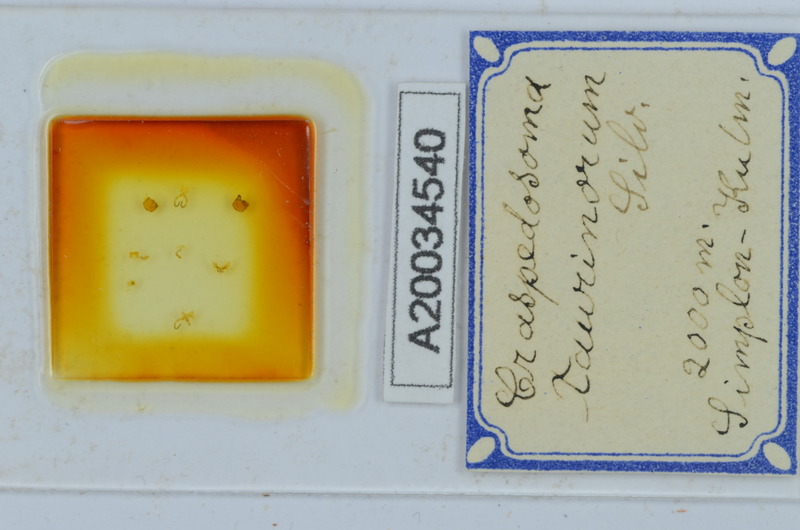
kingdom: Animalia
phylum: Arthropoda
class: Diplopoda
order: Chordeumatida
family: Craspedosomatidae
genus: Craspedosoma
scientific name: Craspedosoma taurinorum
